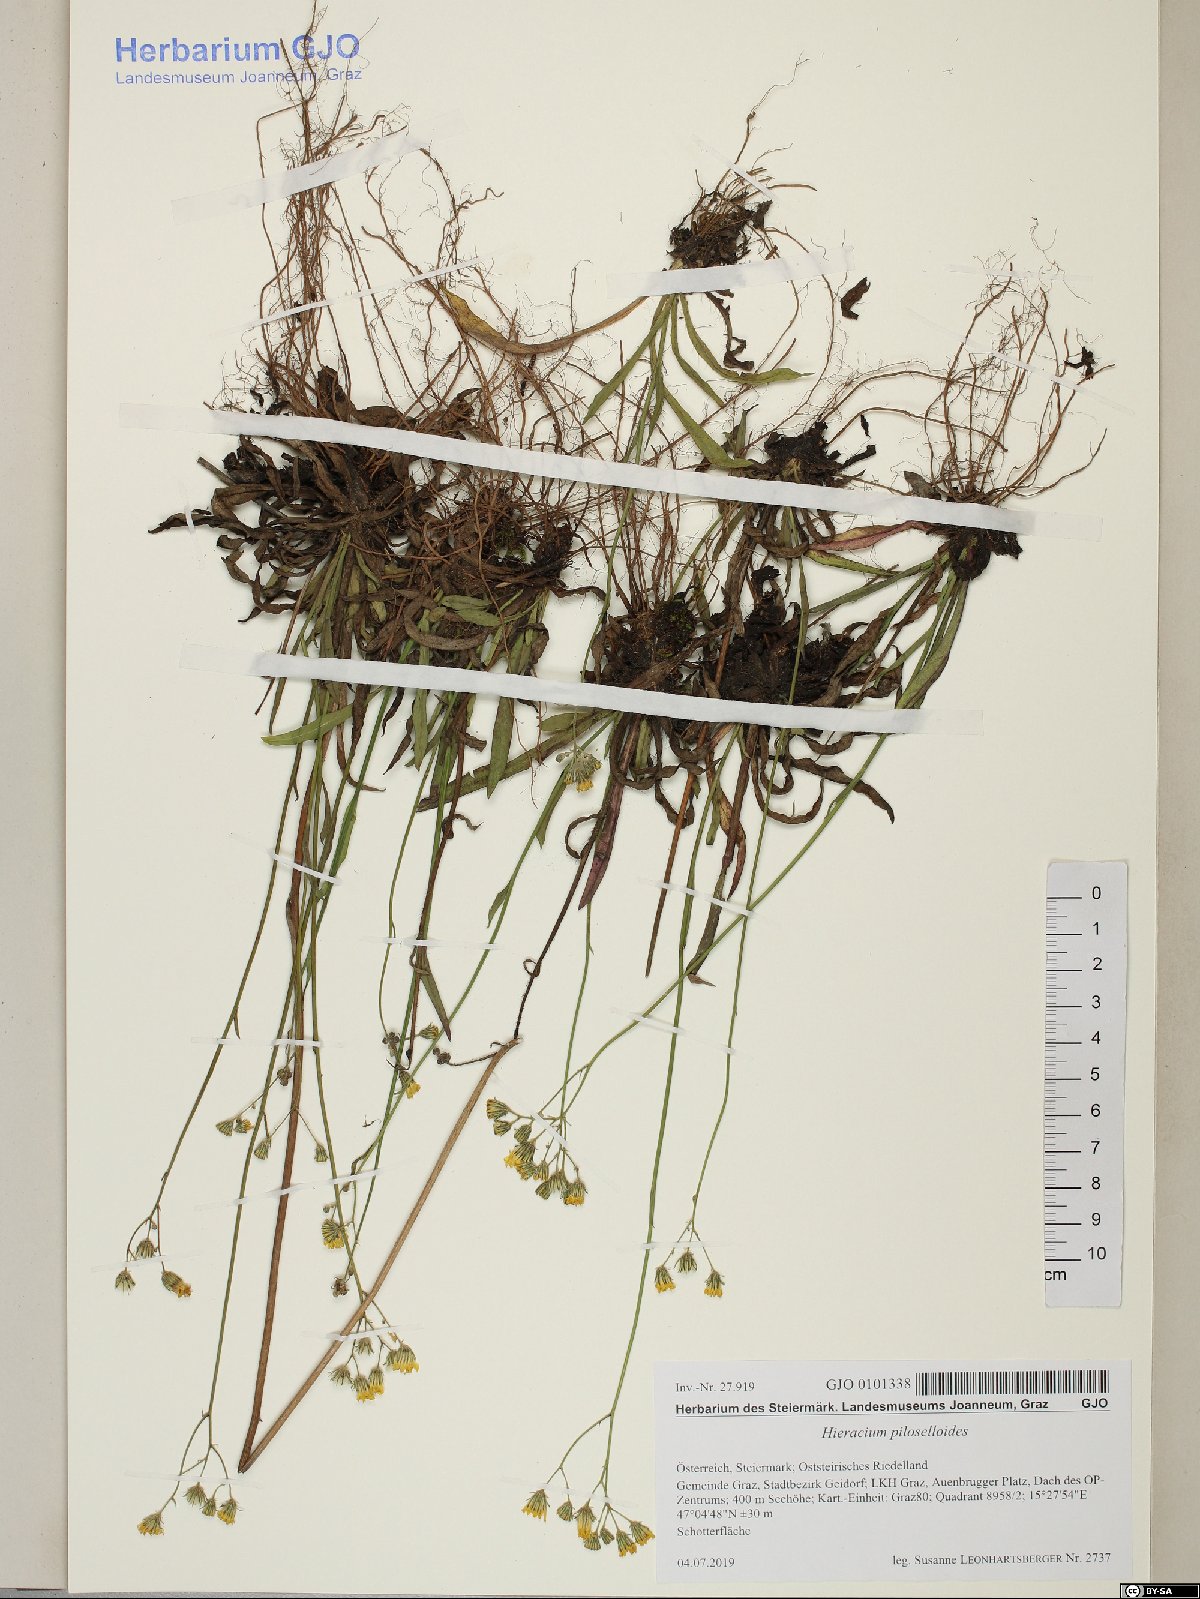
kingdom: Plantae
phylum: Tracheophyta
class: Magnoliopsida
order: Asterales
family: Asteraceae
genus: Pilosella
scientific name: Pilosella piloselloides
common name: Glaucous king-devil
